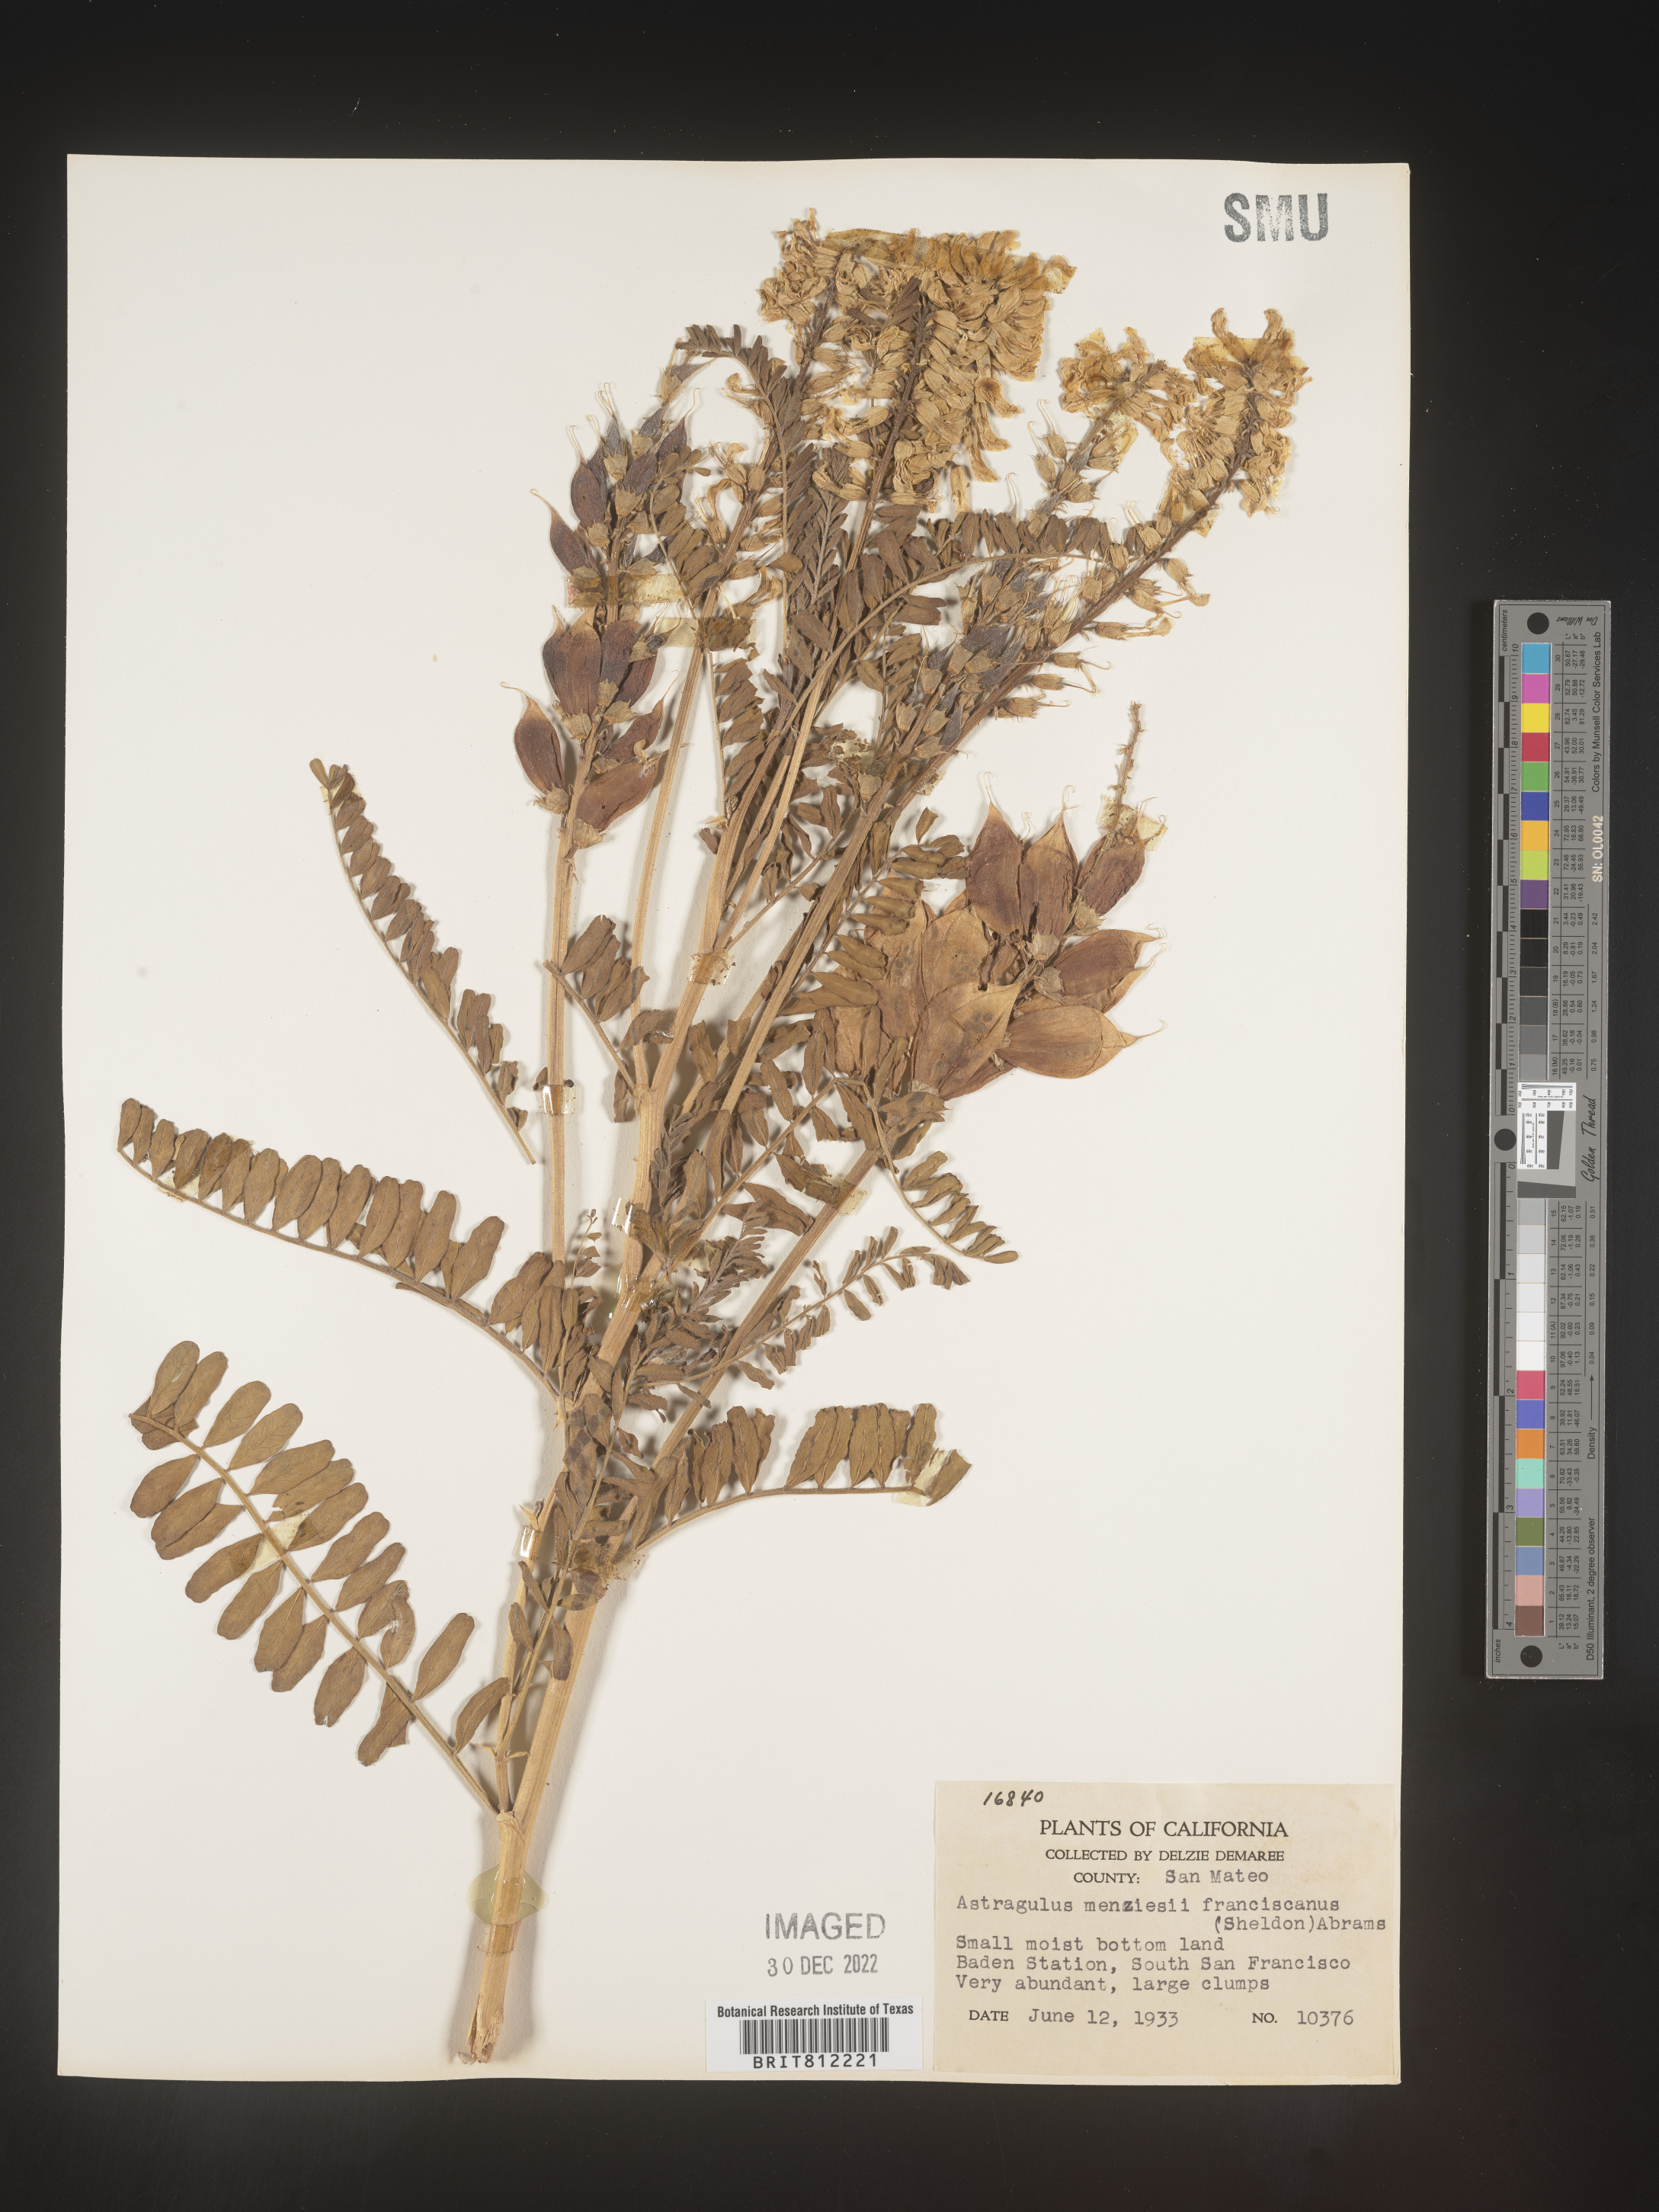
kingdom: Plantae
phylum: Tracheophyta
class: Magnoliopsida
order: Fabales
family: Fabaceae
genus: Astragalus
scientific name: Astragalus
